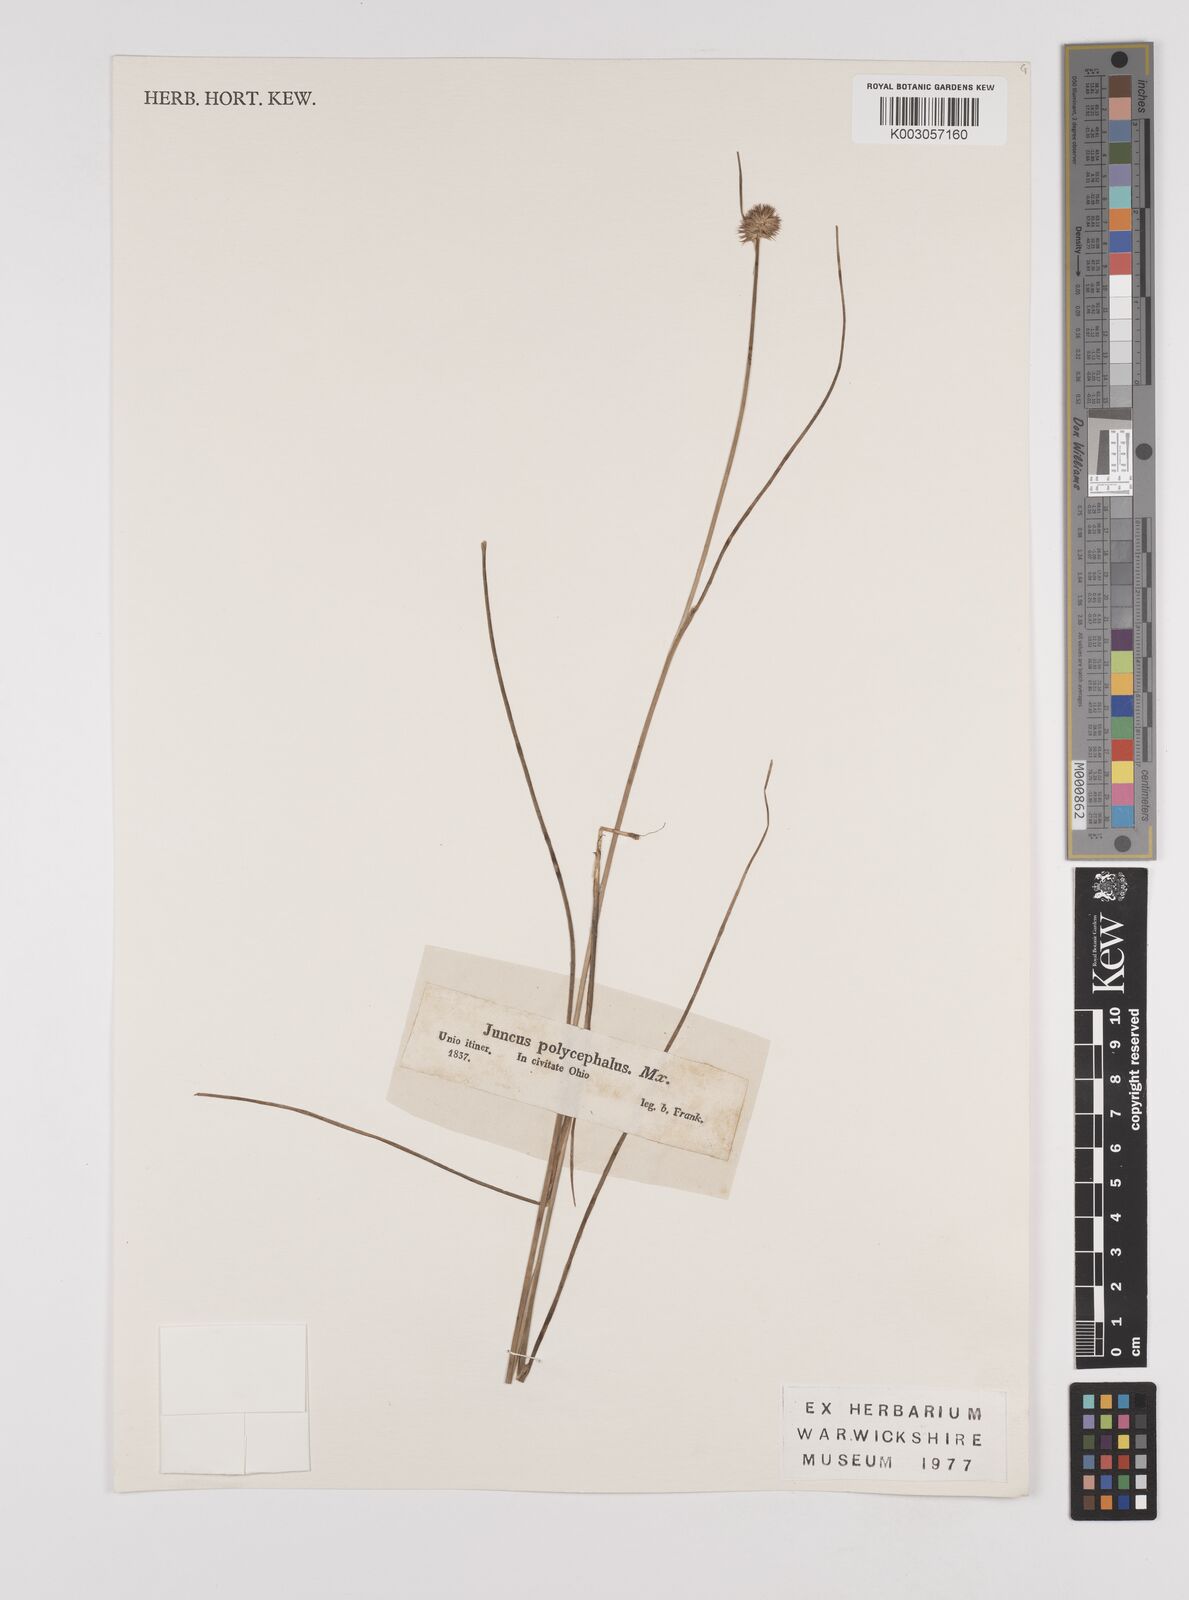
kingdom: Plantae
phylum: Tracheophyta
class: Liliopsida
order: Poales
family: Juncaceae
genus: Juncus
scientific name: Juncus articulatus
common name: Jointed rush
